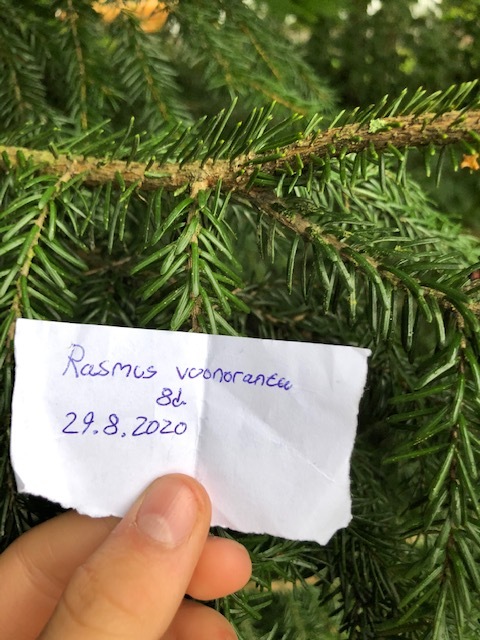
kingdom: Plantae
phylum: Tracheophyta
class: Magnoliopsida
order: Ericales
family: Ericaceae
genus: Vaccinium
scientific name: Vaccinium myrtillus
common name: Bilberry
